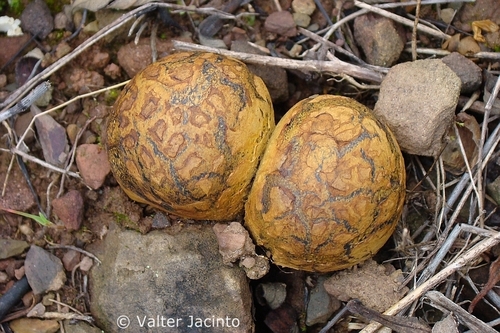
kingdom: Fungi
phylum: Basidiomycota
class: Agaricomycetes
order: Boletales
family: Sclerodermataceae
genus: Pisolithus
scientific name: Pisolithus arhizus
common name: Dyeball
